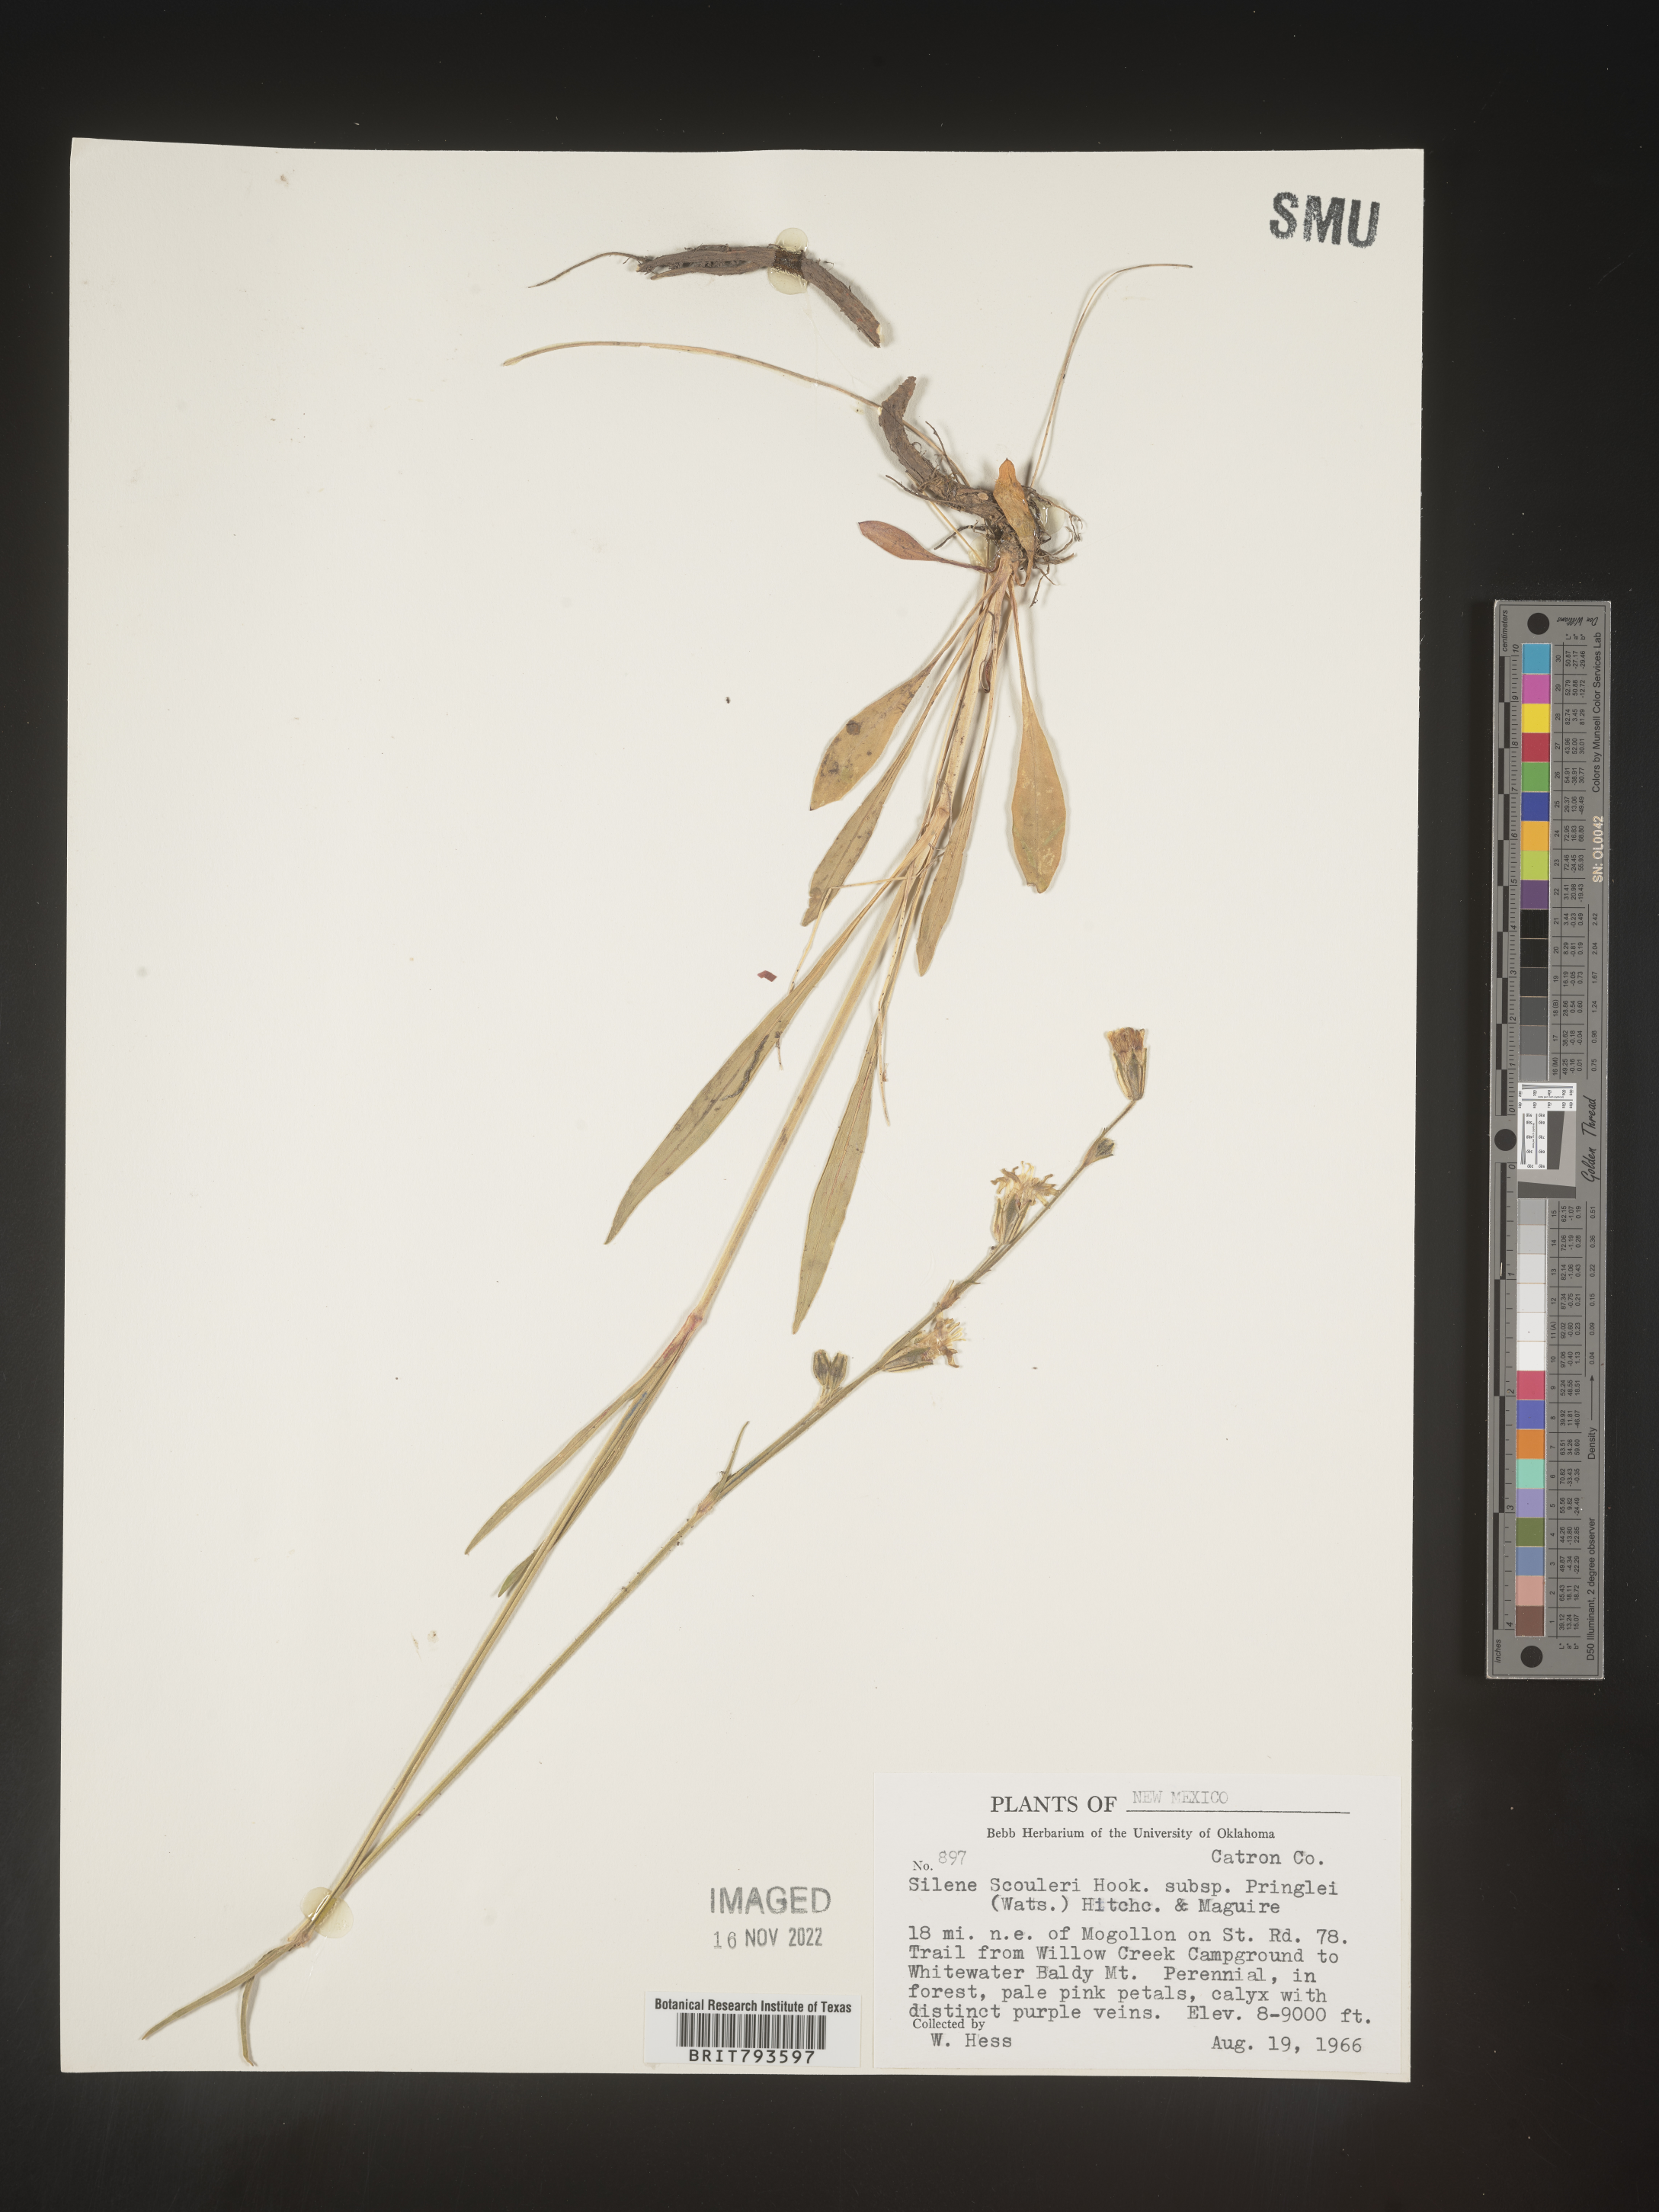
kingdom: Plantae
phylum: Tracheophyta
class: Magnoliopsida
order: Caryophyllales
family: Caryophyllaceae
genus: Silene
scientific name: Silene scouleri
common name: Scouler's campion
